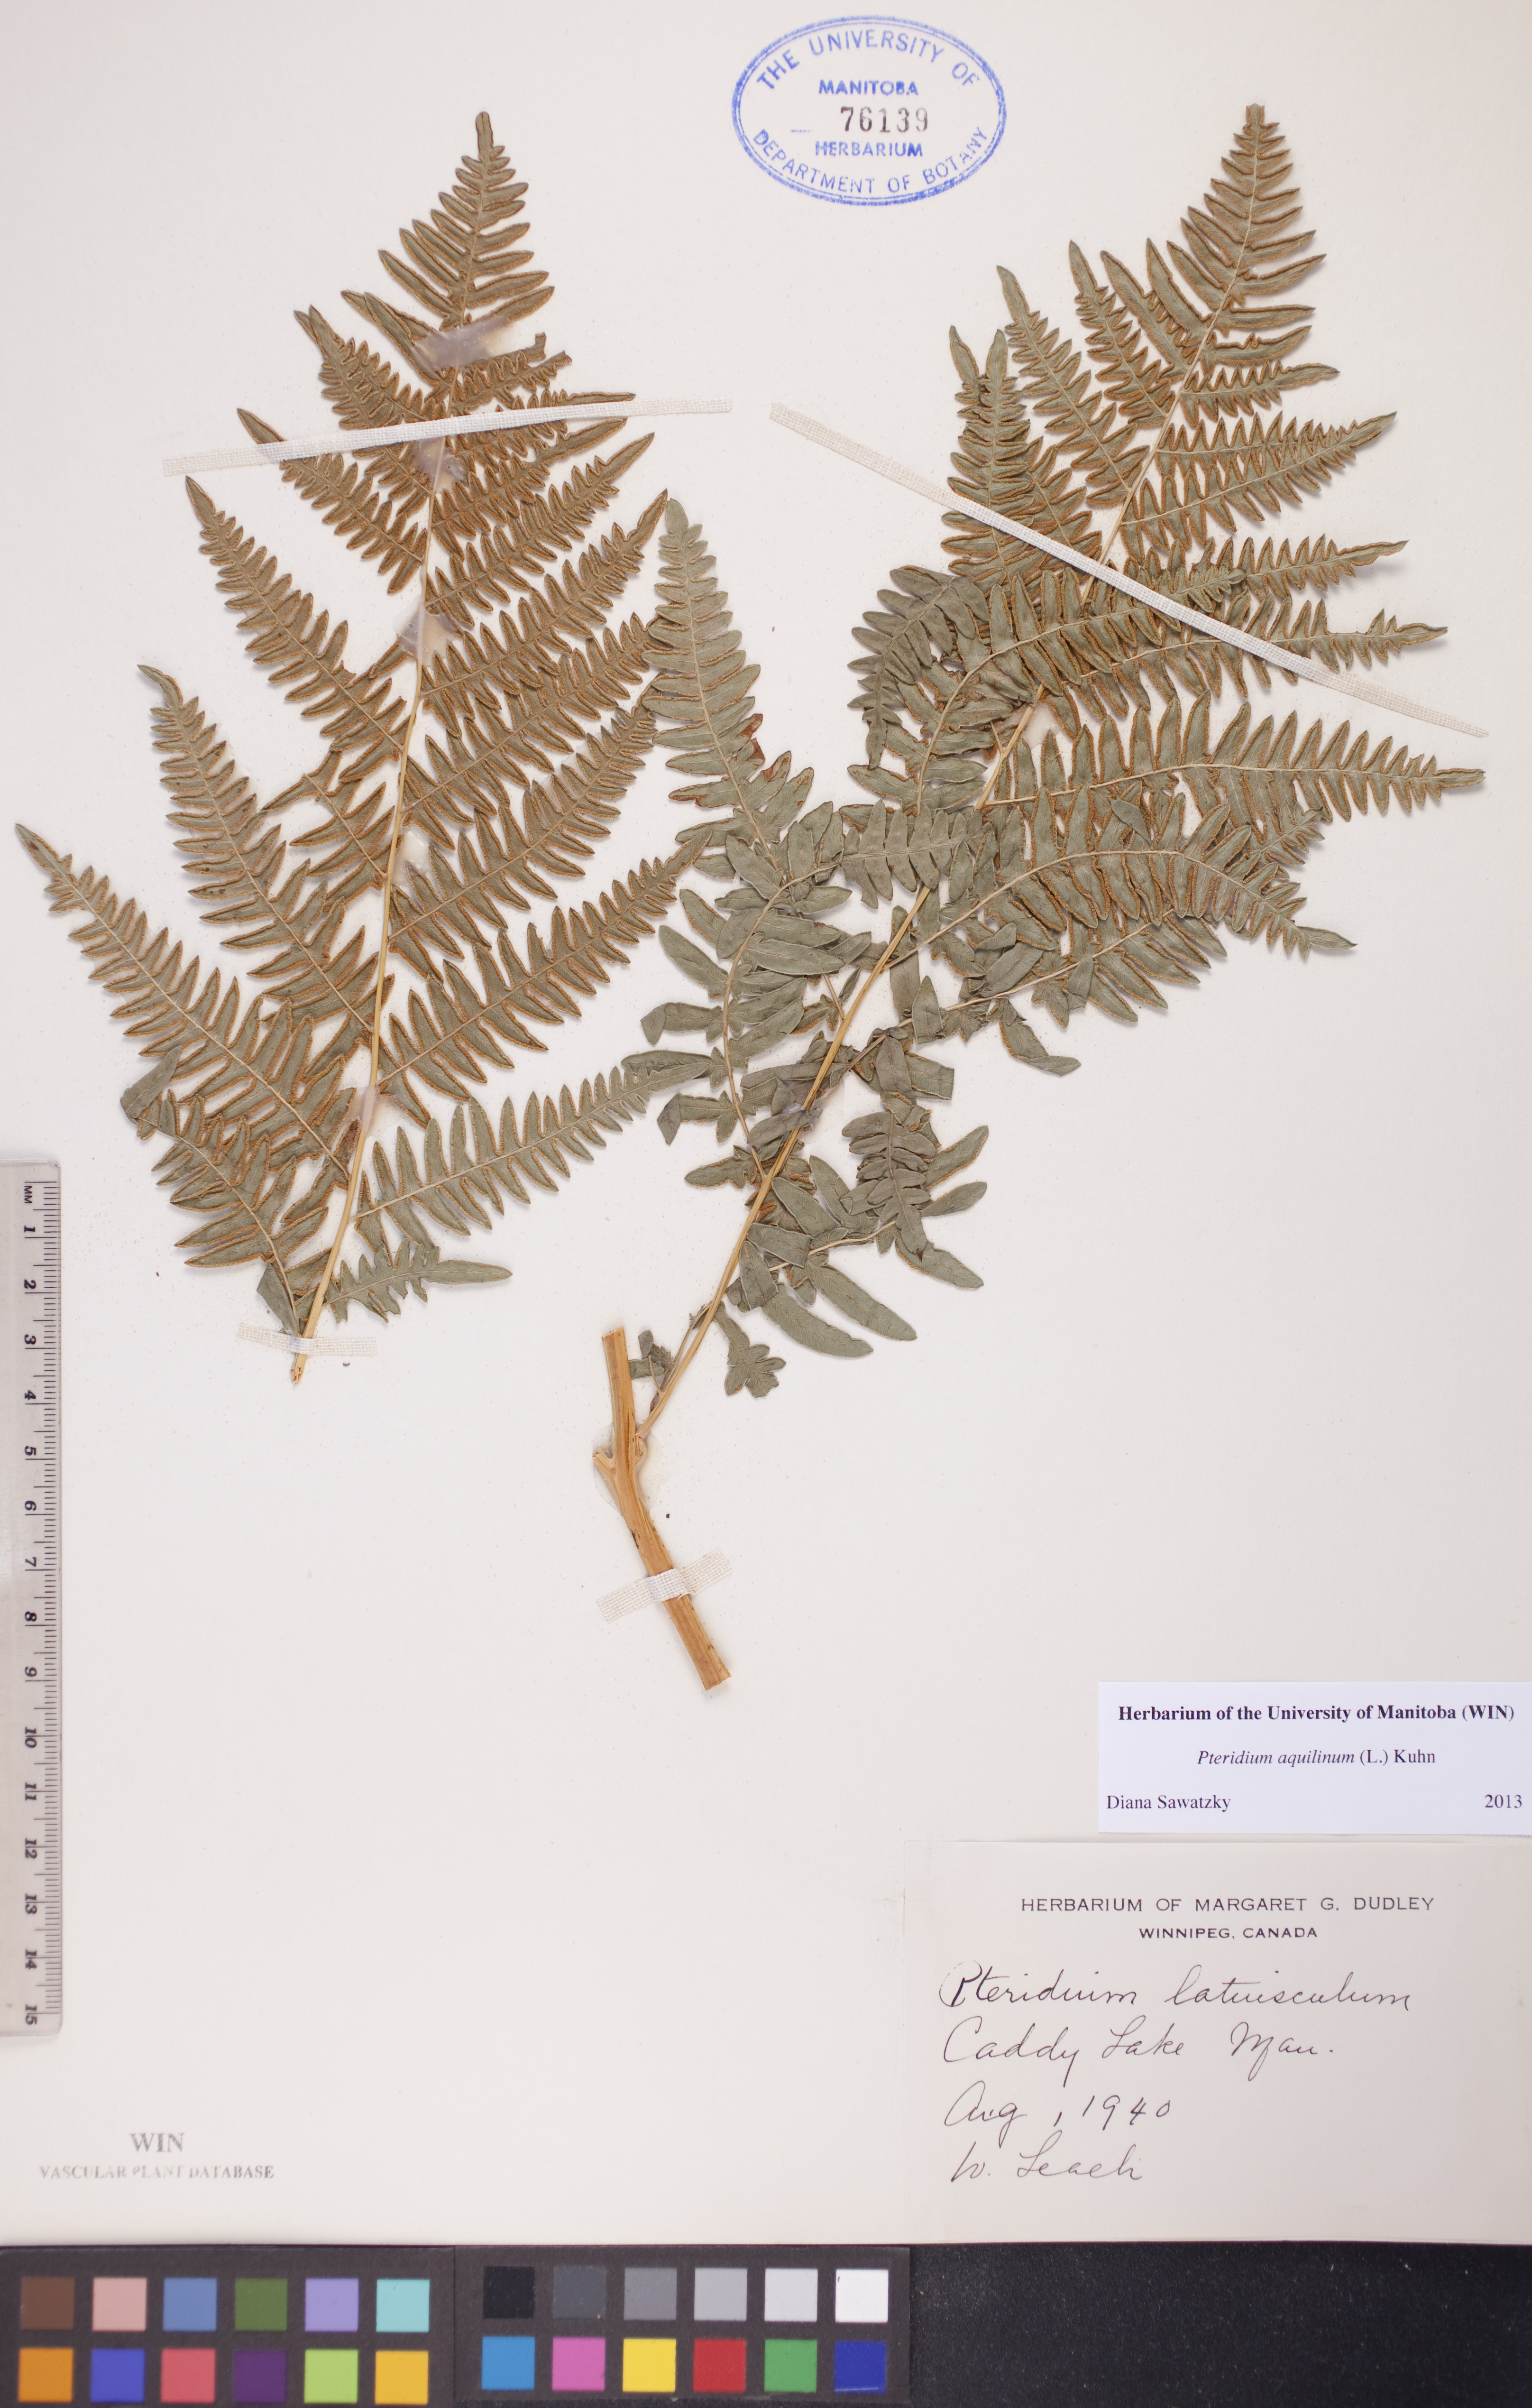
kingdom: Plantae
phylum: Tracheophyta
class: Polypodiopsida
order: Polypodiales
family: Dennstaedtiaceae
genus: Pteridium
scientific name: Pteridium aquilinum
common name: Bracken
